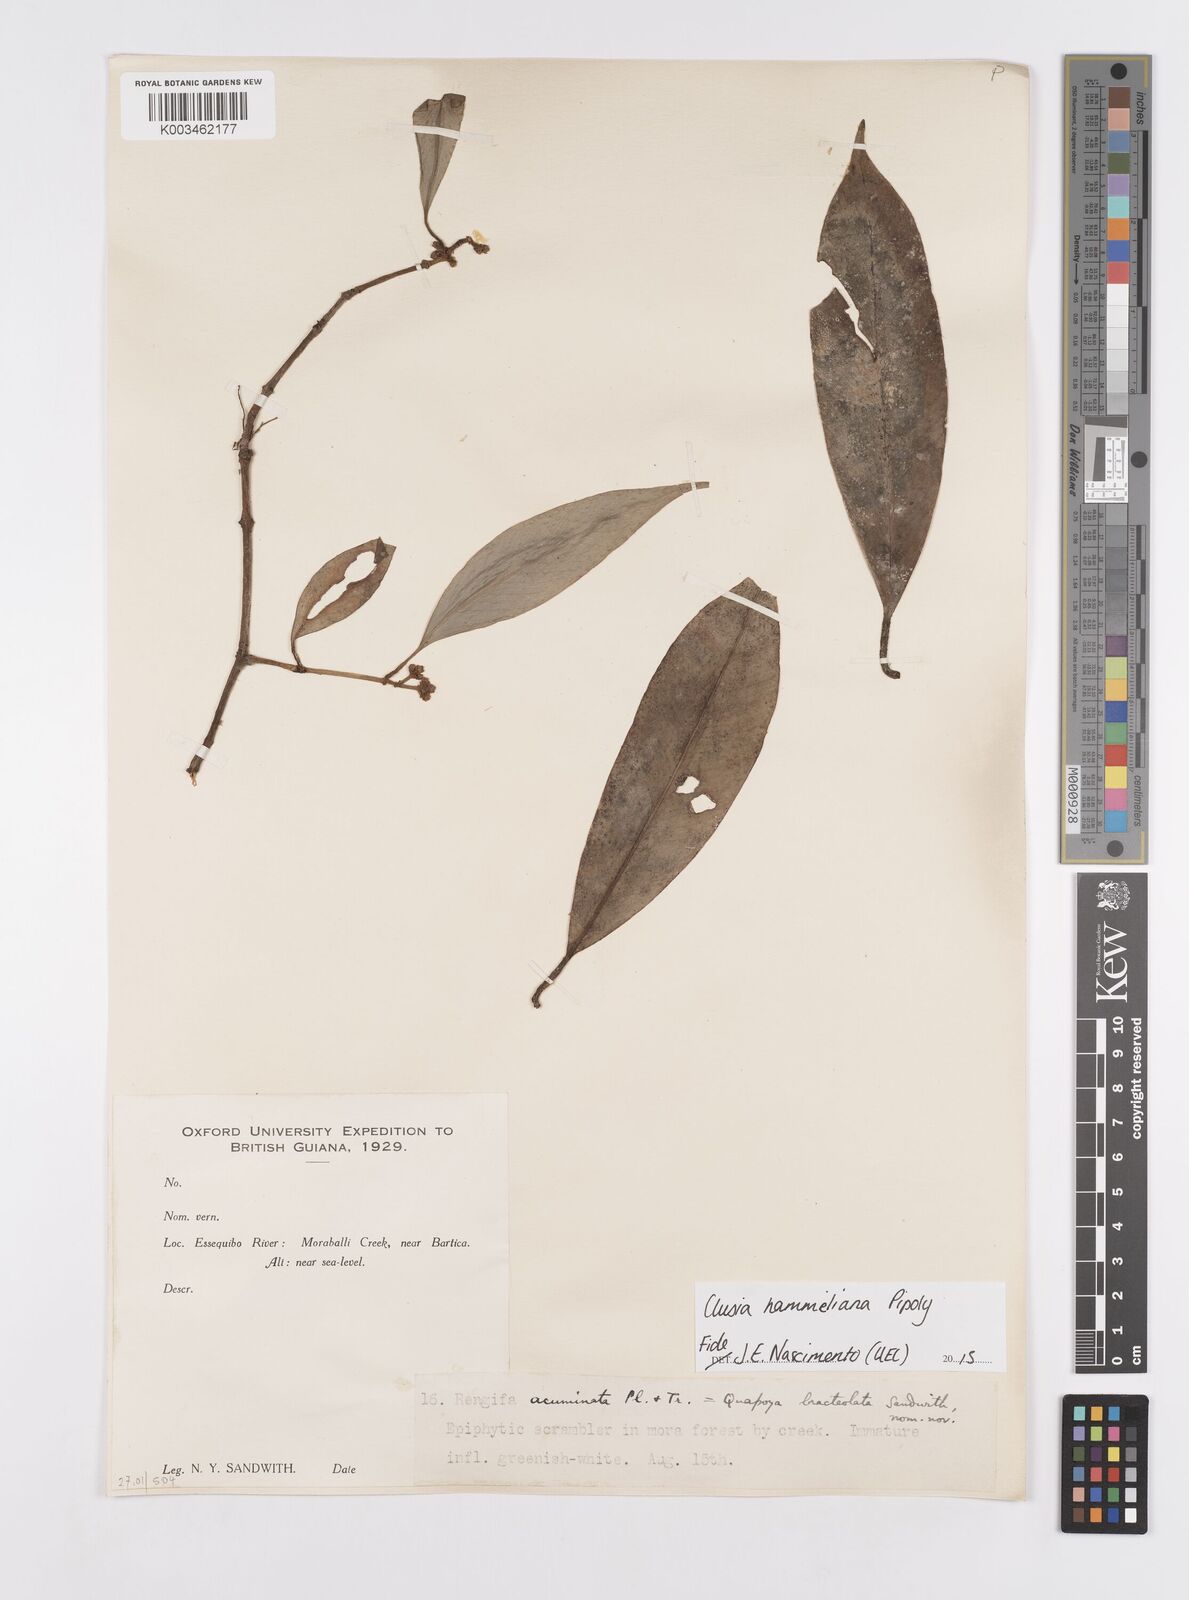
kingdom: Plantae
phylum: Tracheophyta
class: Magnoliopsida
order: Malpighiales
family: Clusiaceae
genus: Clusia
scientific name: Clusia hammeliana
